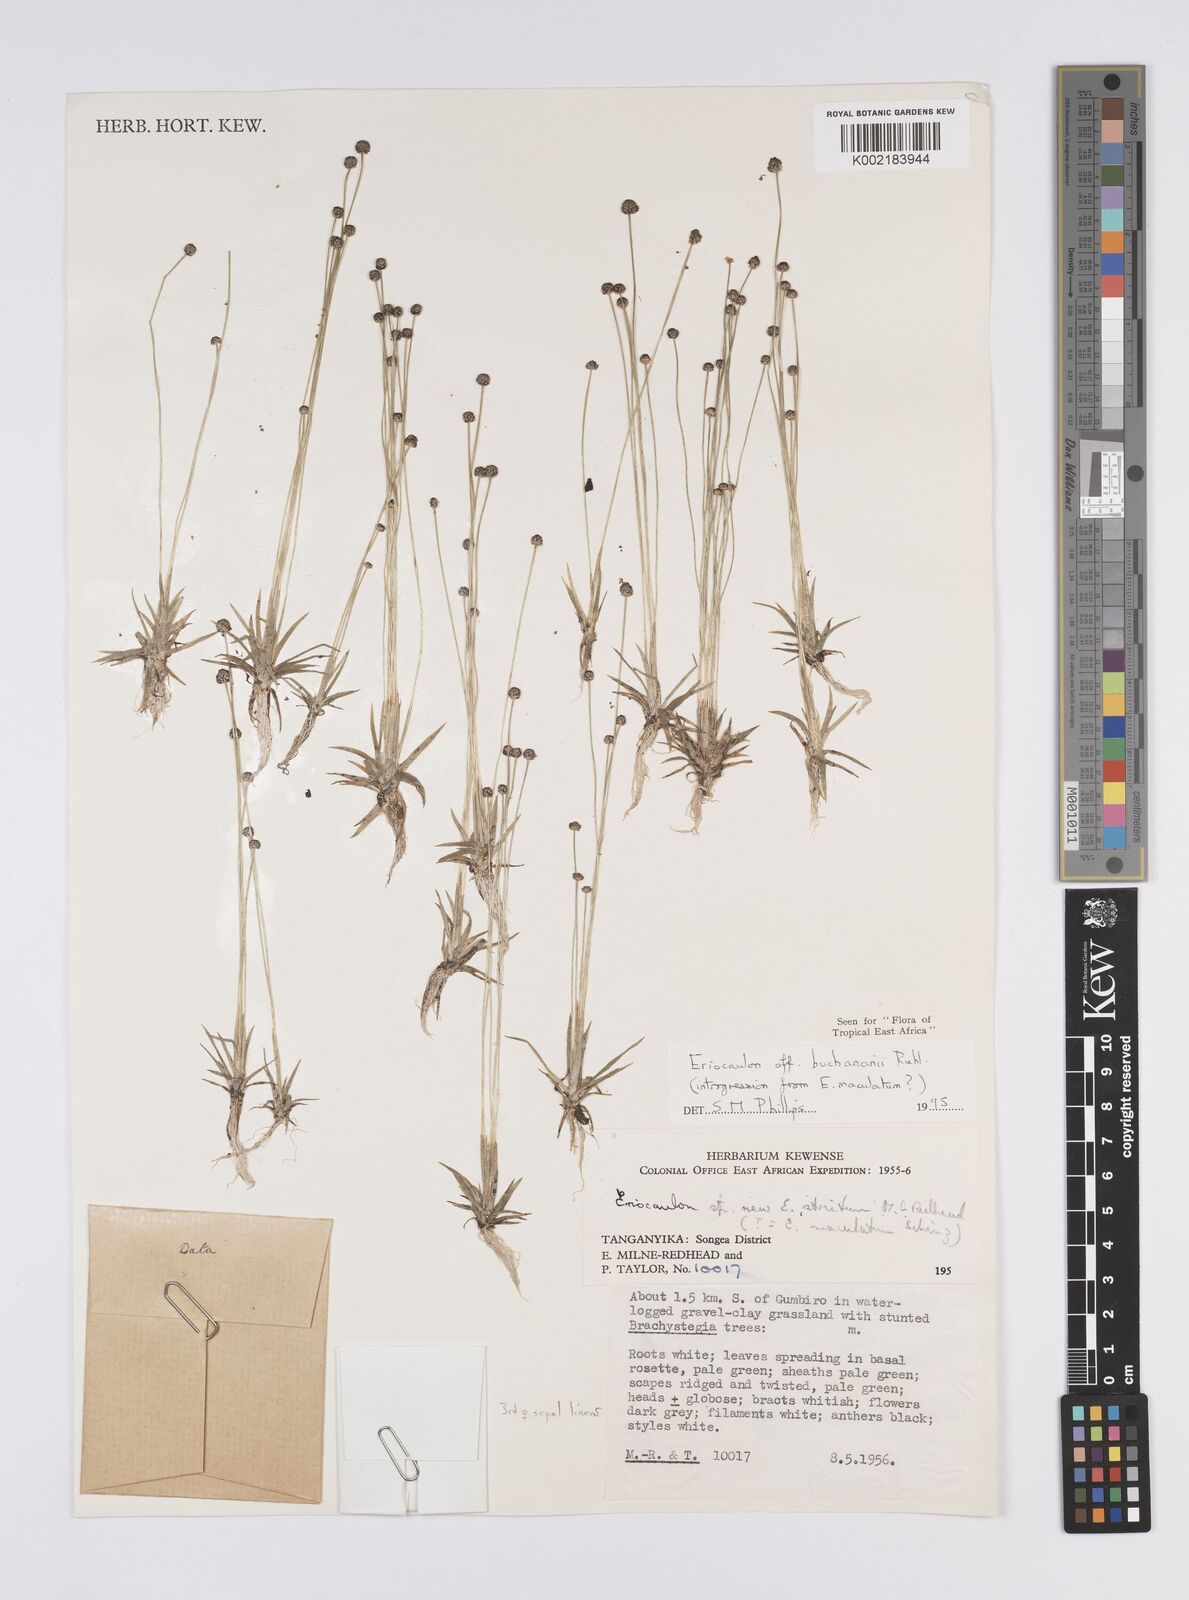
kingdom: Plantae
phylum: Tracheophyta
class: Liliopsida
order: Poales
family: Eriocaulaceae
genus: Eriocaulon
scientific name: Eriocaulon buchananii
